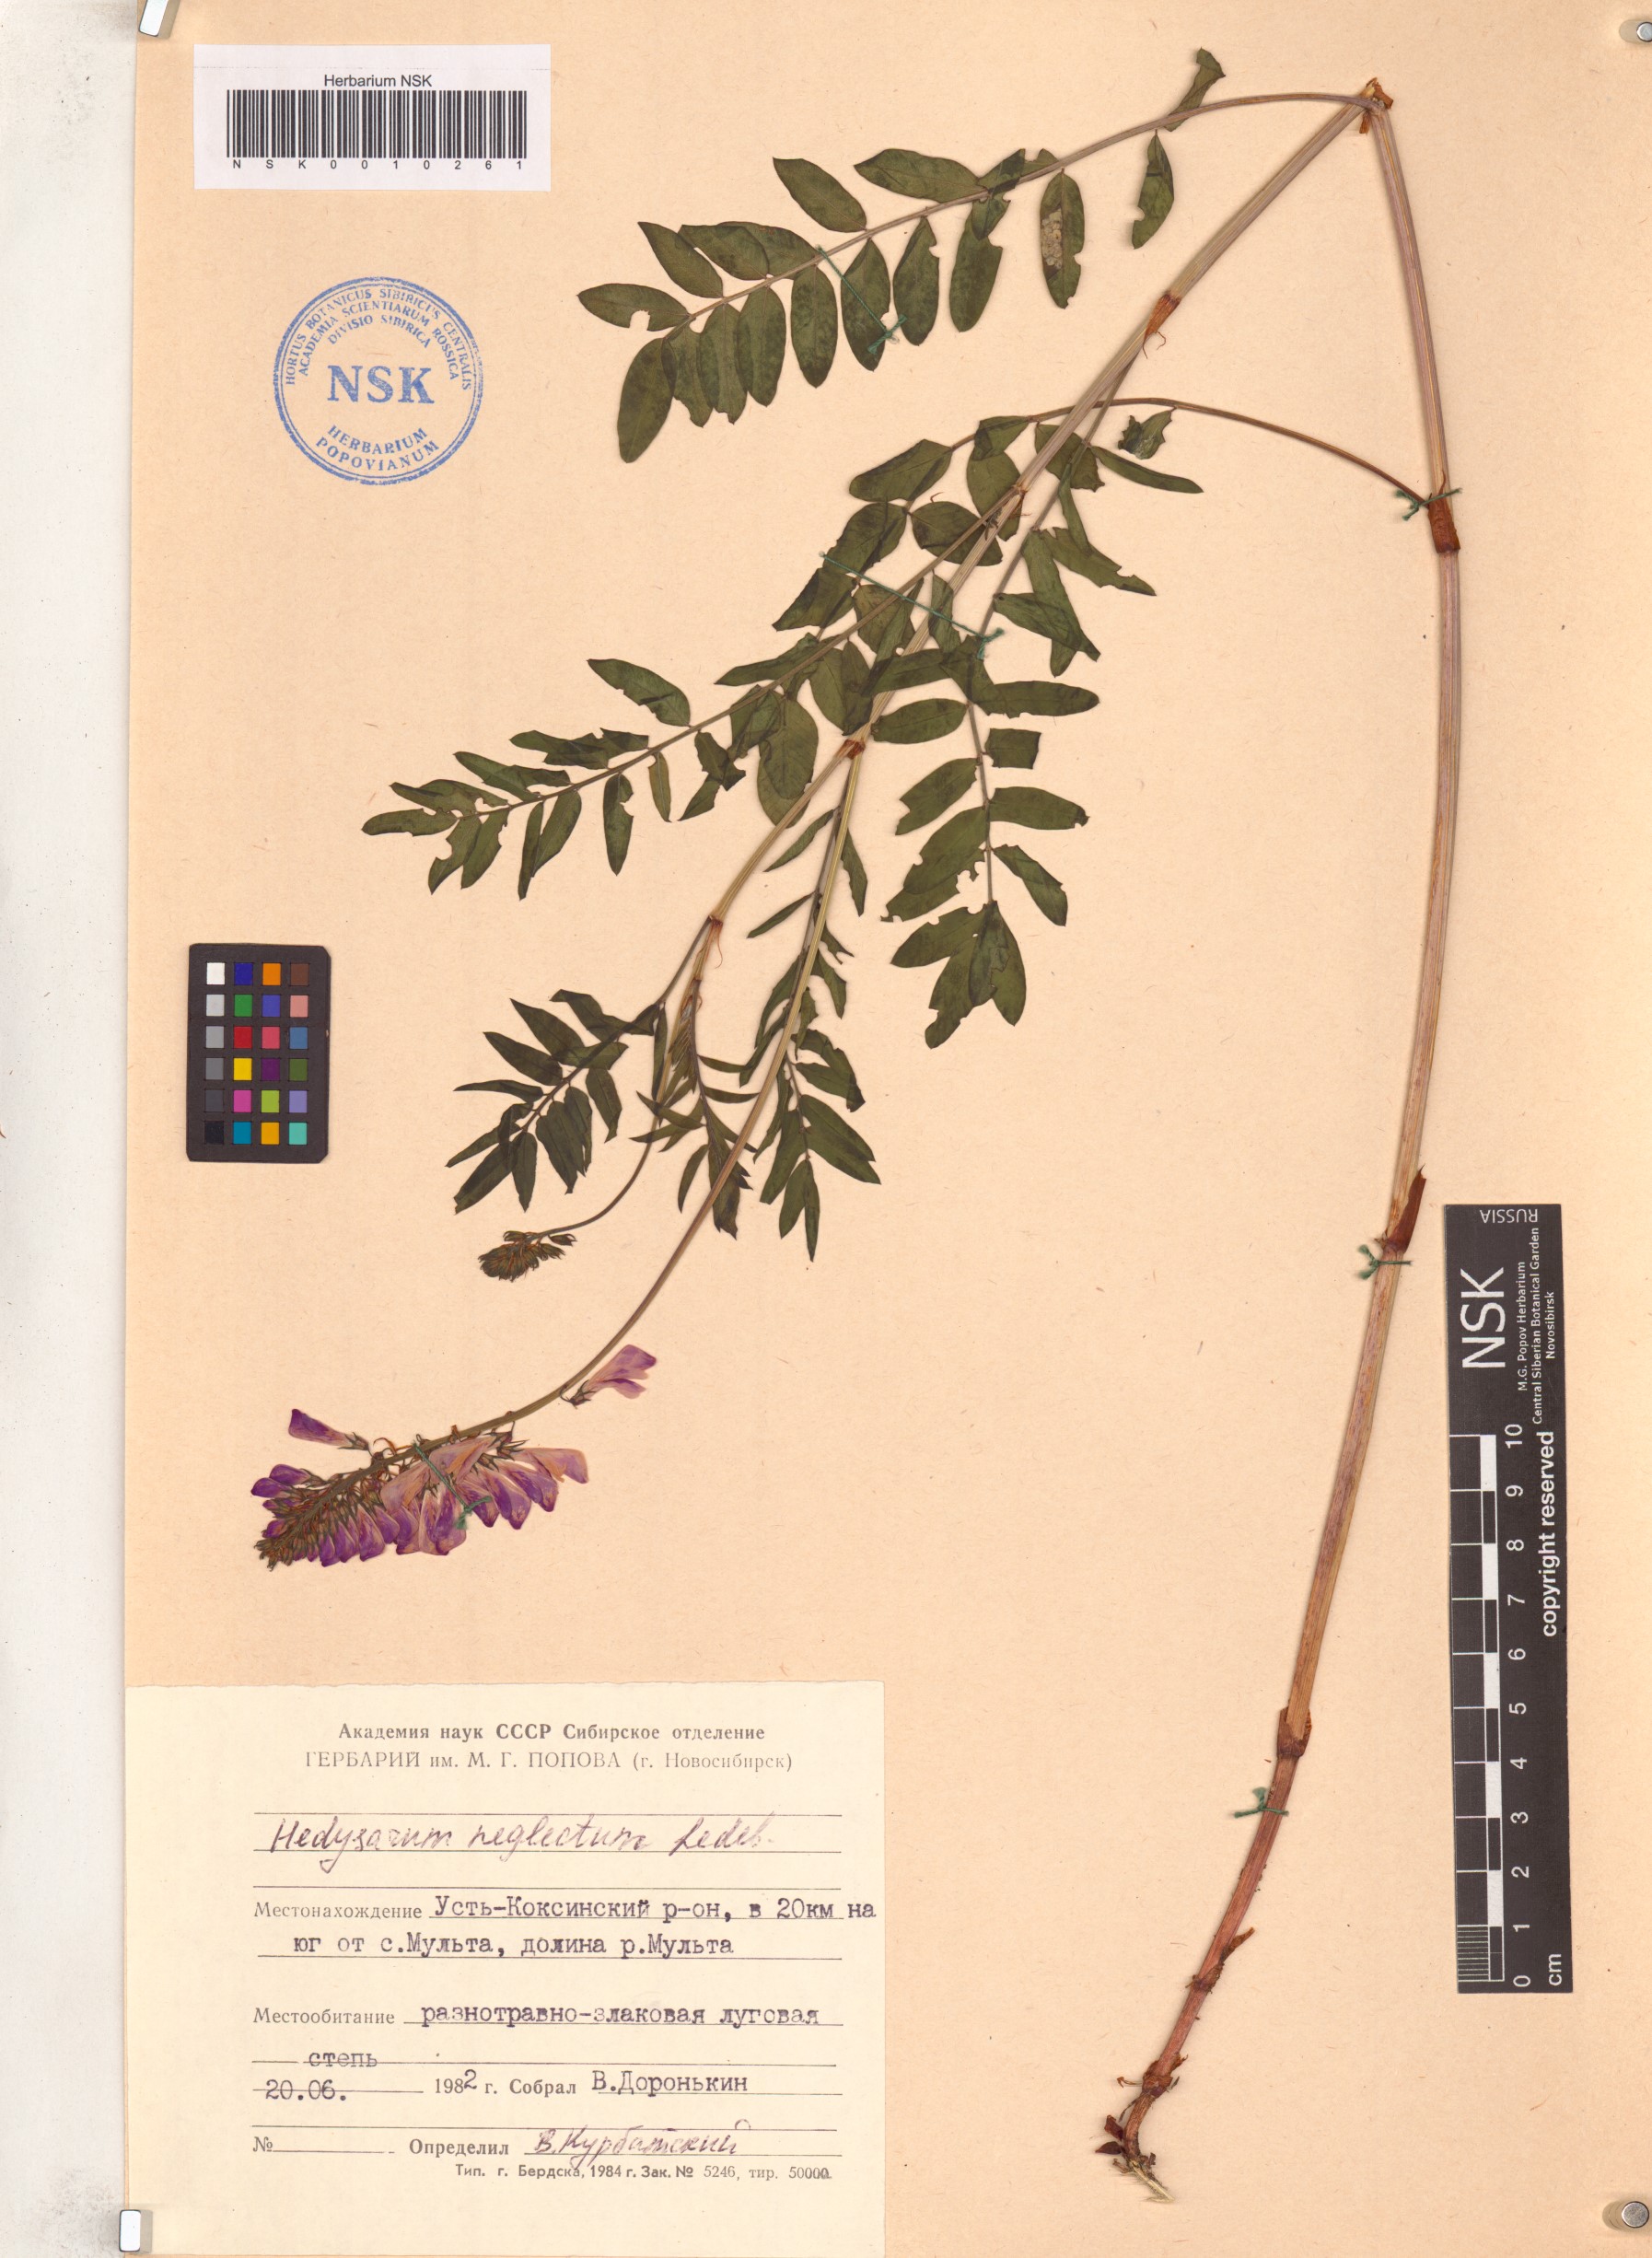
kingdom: Plantae
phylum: Tracheophyta
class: Magnoliopsida
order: Fabales
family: Fabaceae
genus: Hedysarum
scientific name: Hedysarum neglectum
